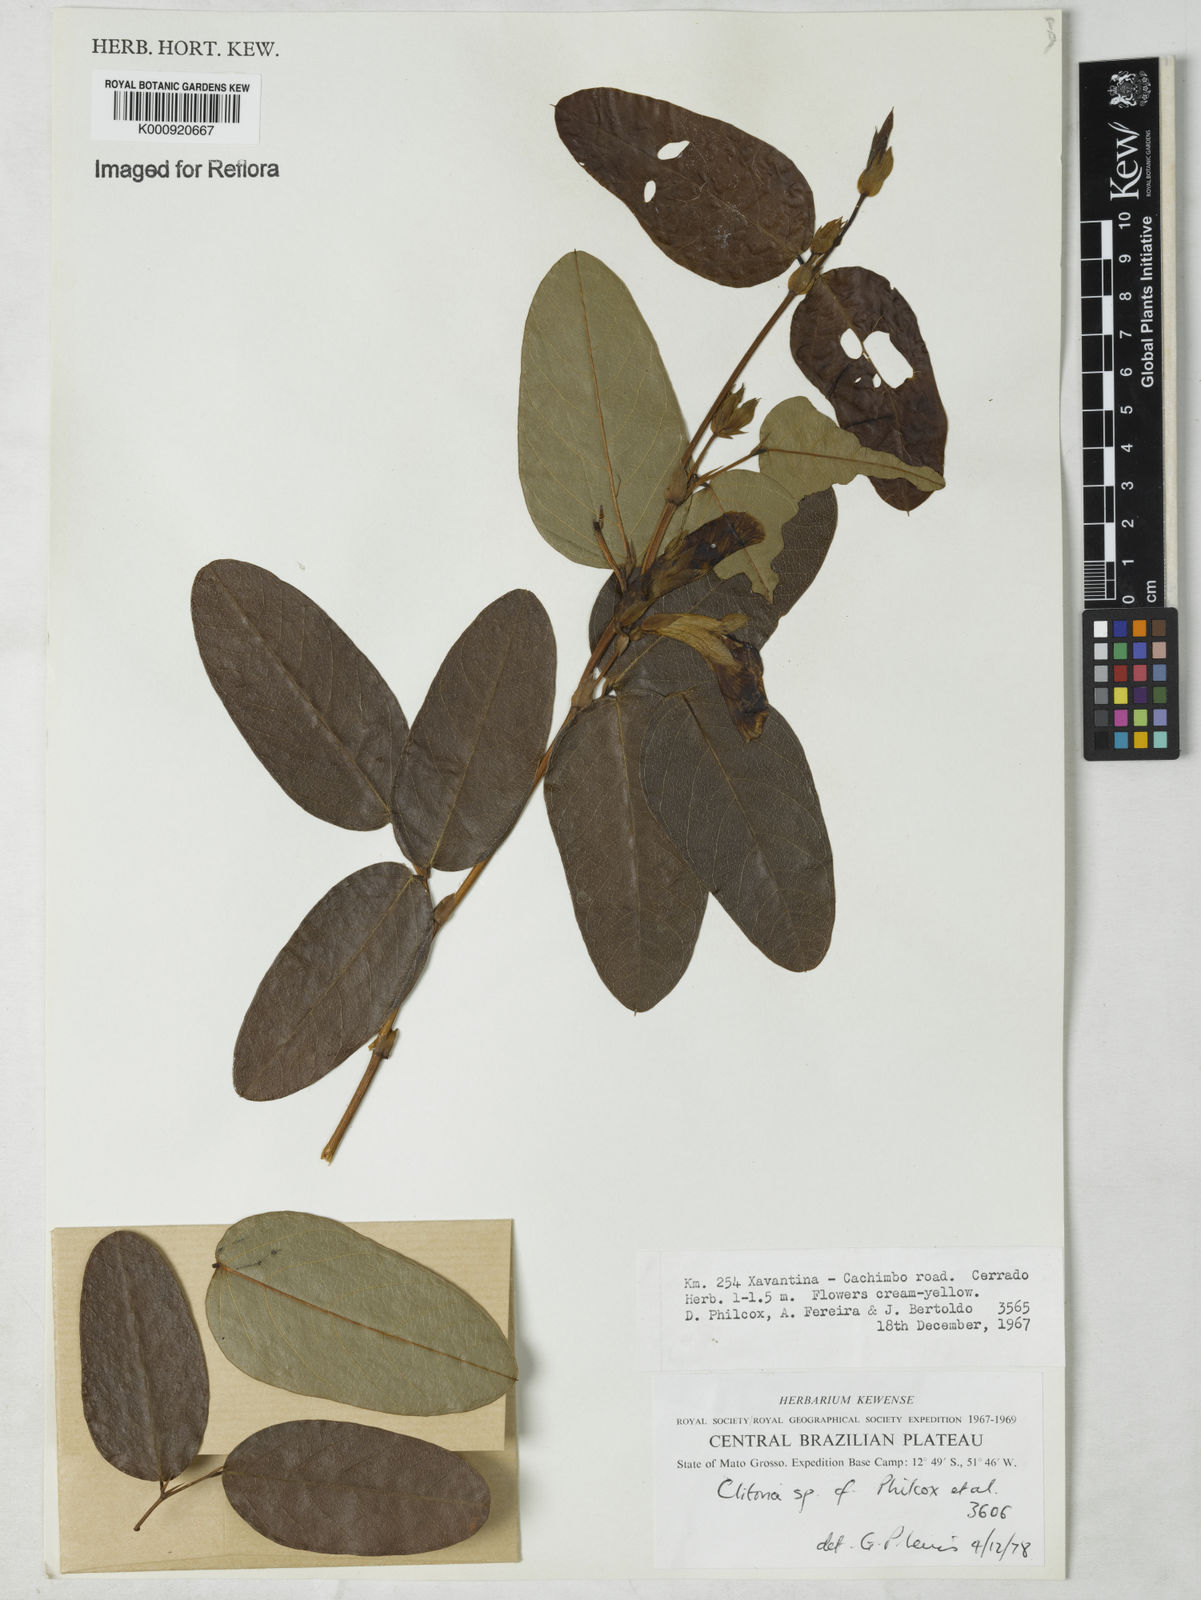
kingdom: Plantae
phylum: Tracheophyta
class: Magnoliopsida
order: Fabales
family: Fabaceae
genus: Clitoria
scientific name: Clitoria
